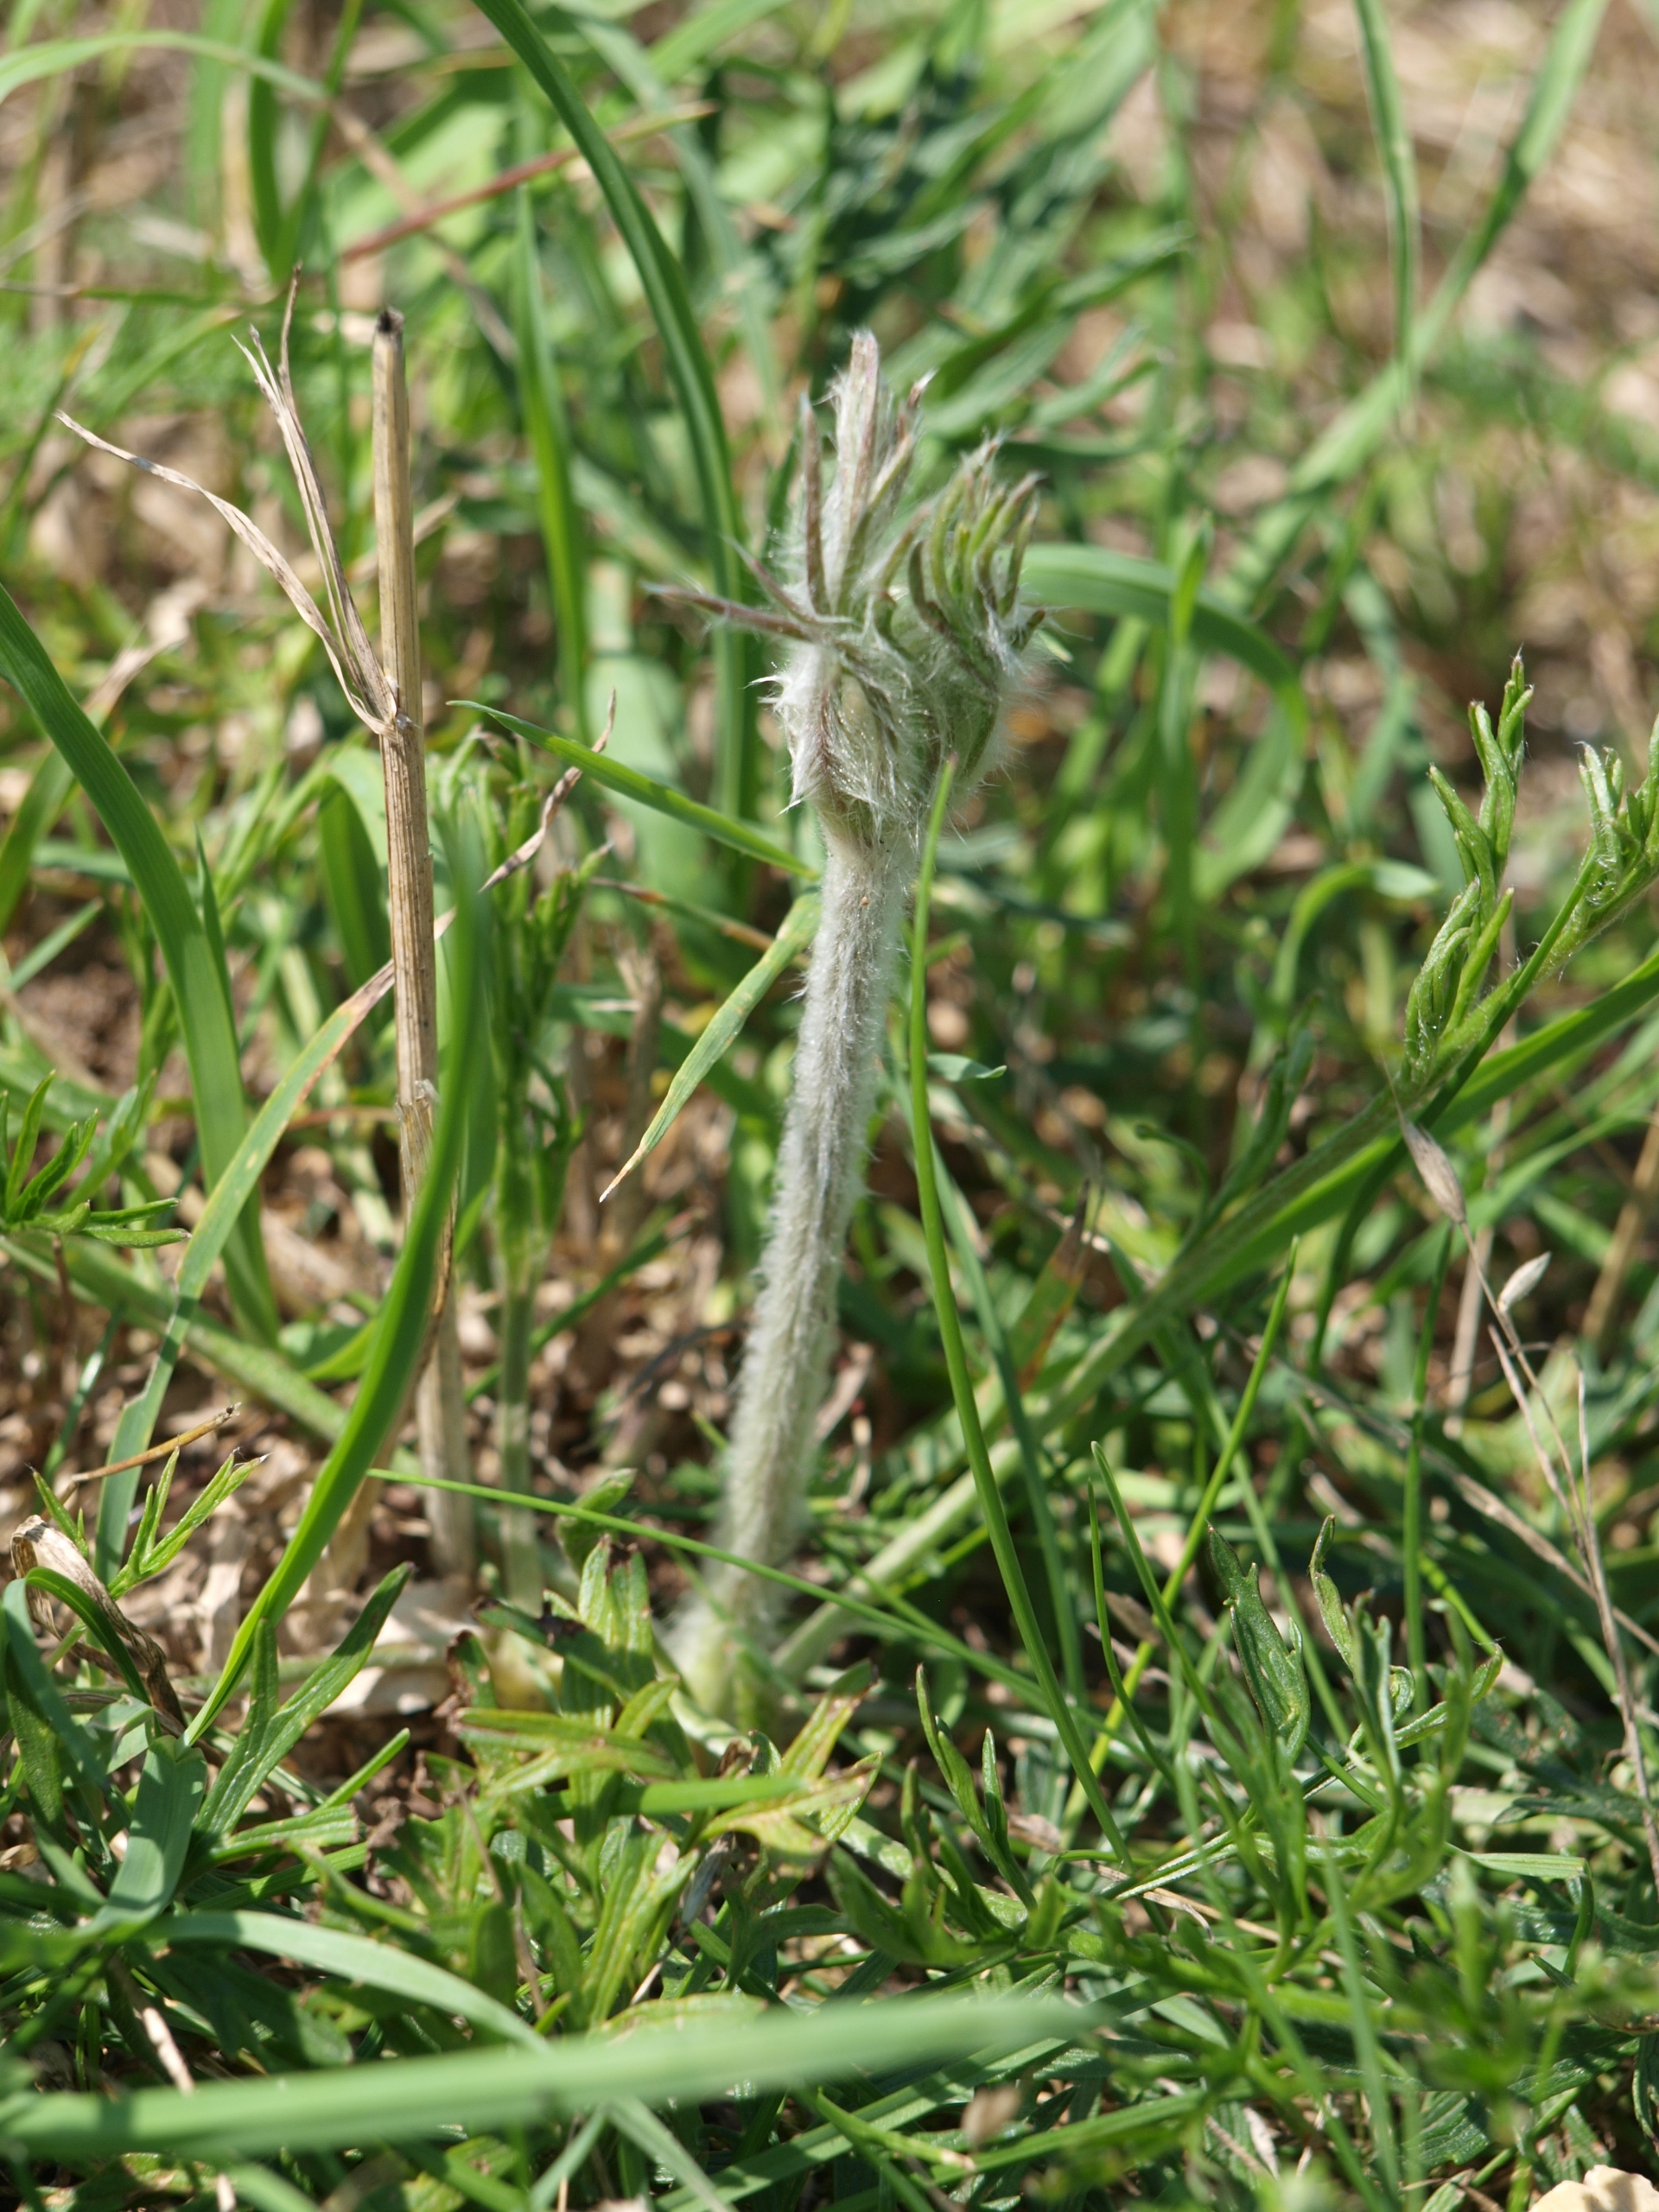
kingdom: Plantae
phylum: Tracheophyta
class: Magnoliopsida
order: Ranunculales
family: Ranunculaceae
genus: Pulsatilla
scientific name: Pulsatilla pratensis
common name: Nikkende kobjælde
